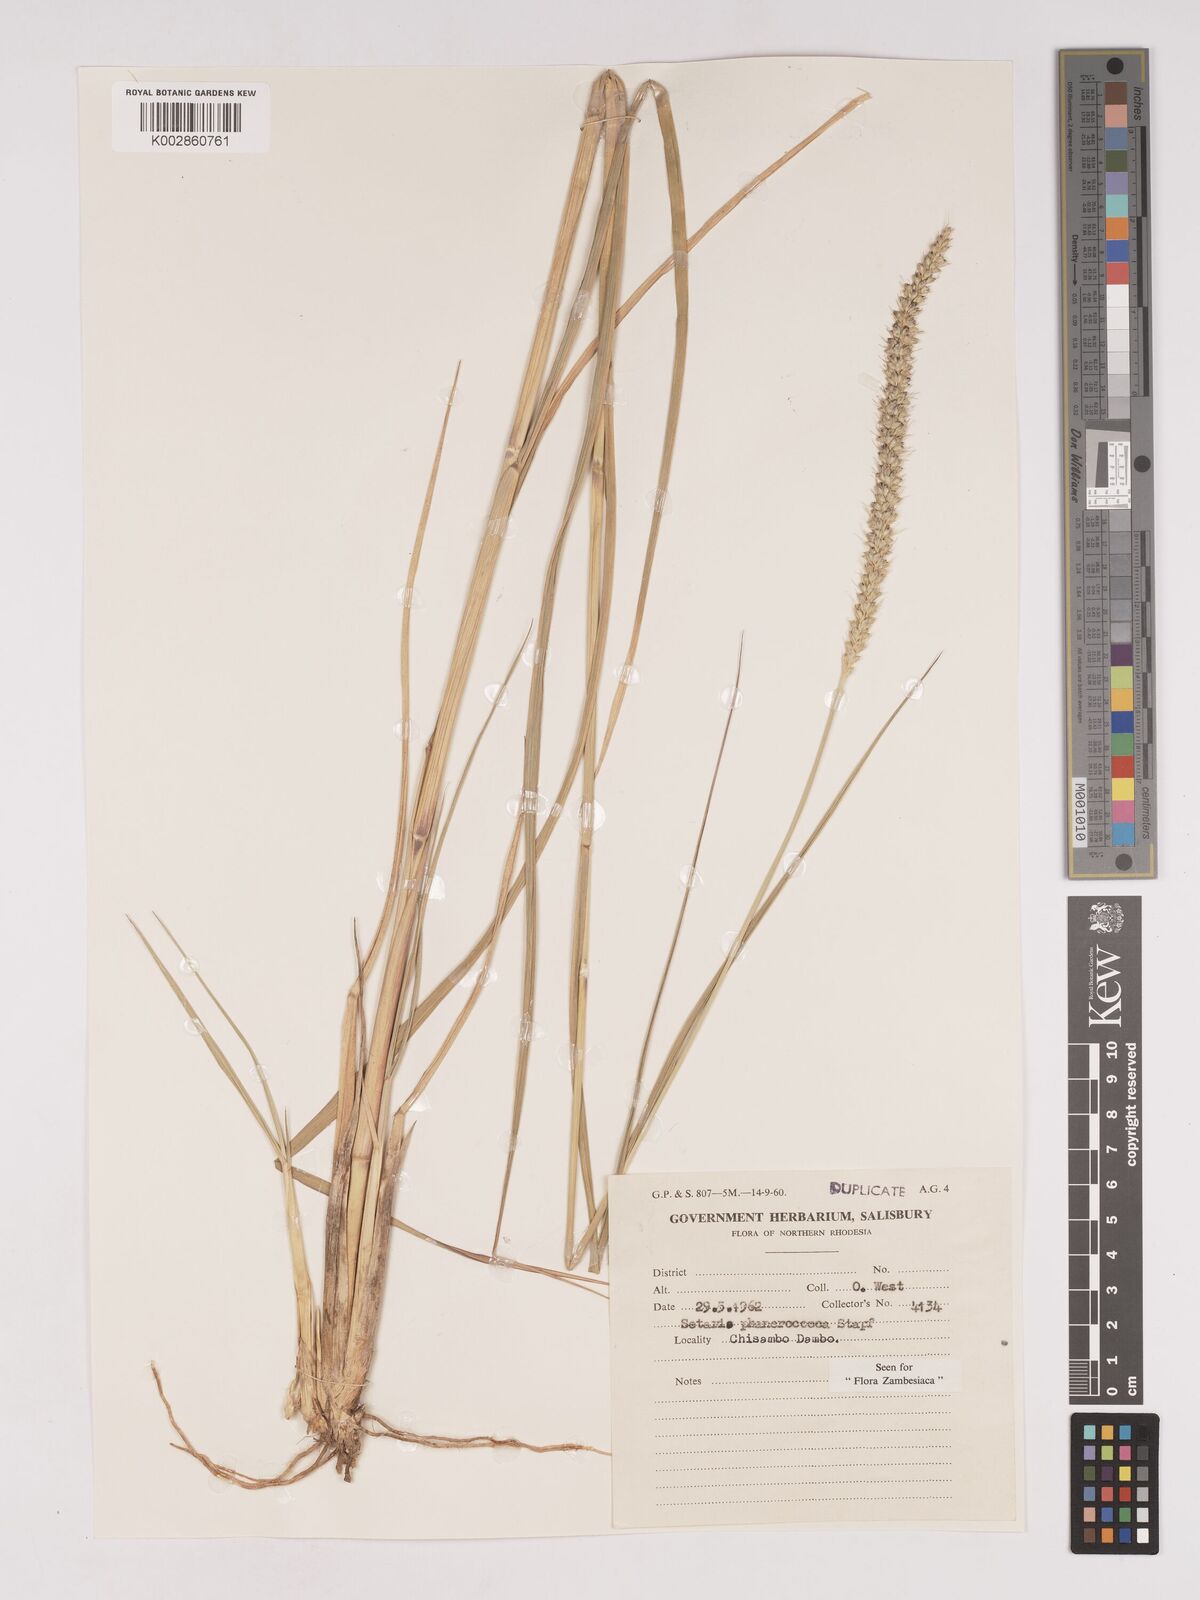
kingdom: Plantae
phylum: Tracheophyta
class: Liliopsida
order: Poales
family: Poaceae
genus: Setaria
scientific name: Setaria incrassata
